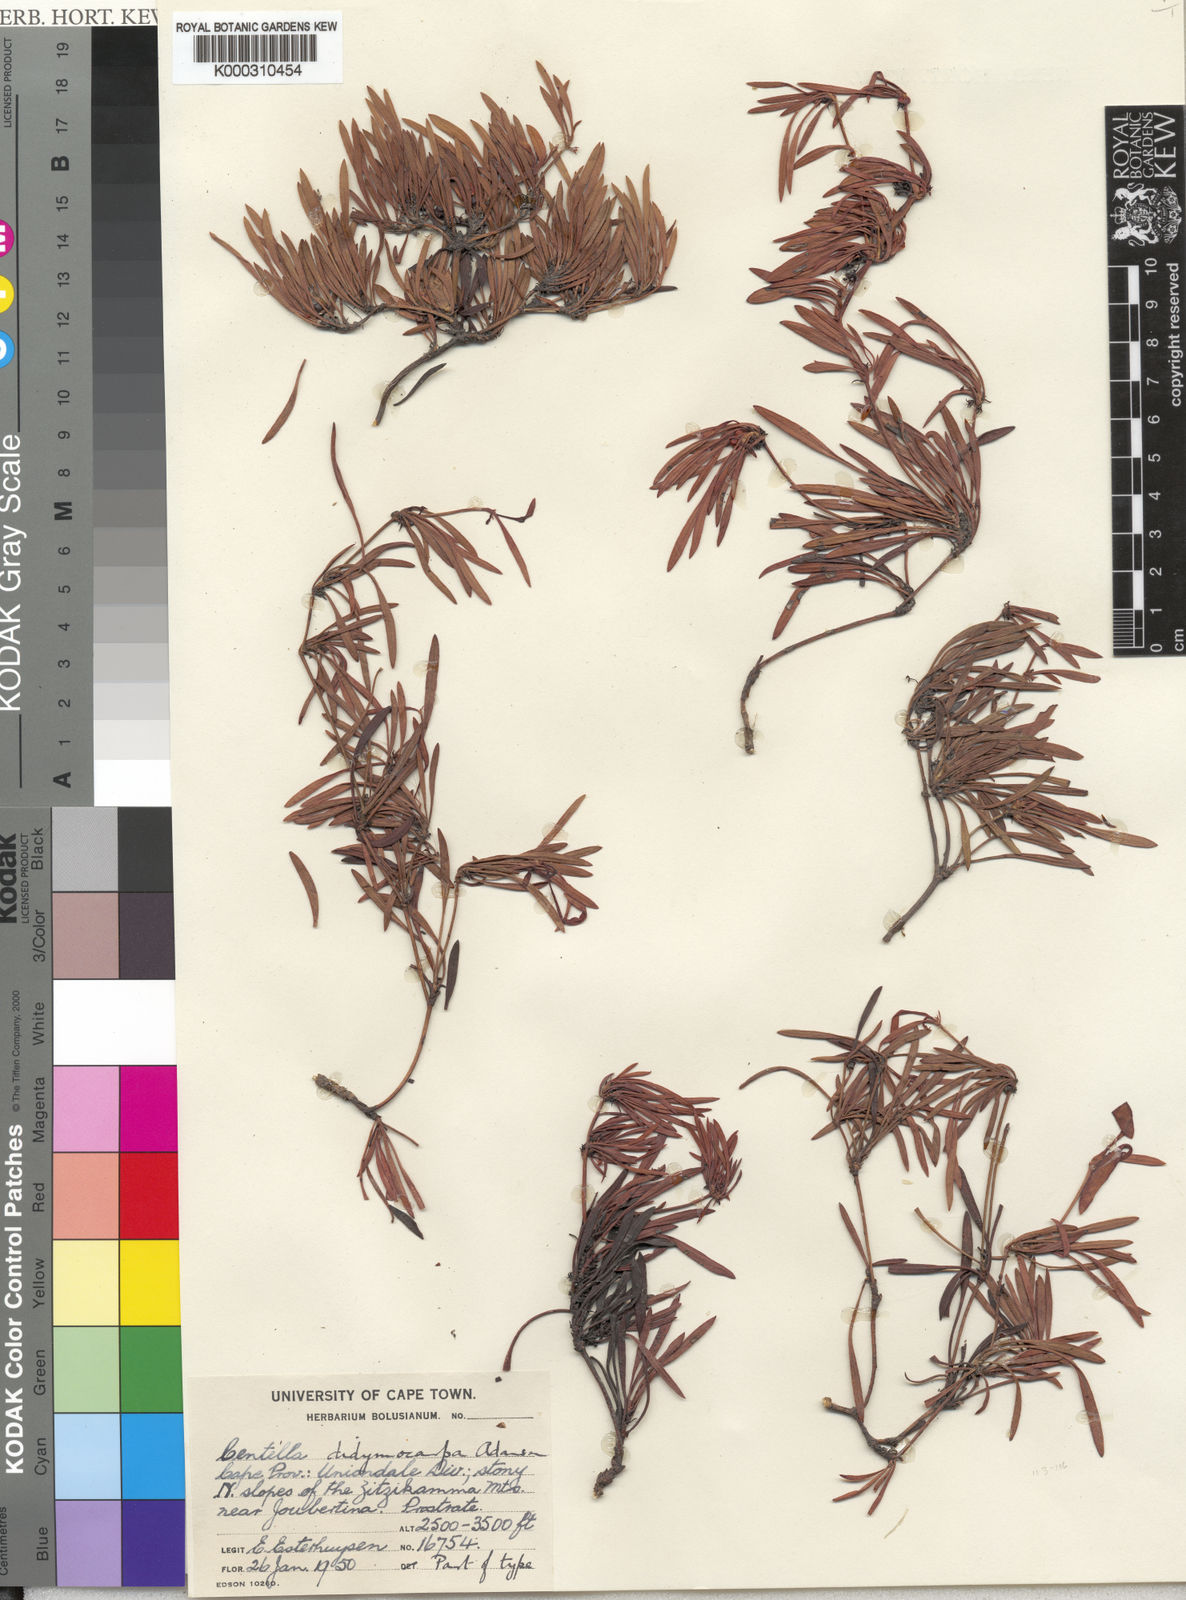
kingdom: Plantae
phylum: Tracheophyta
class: Magnoliopsida
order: Apiales
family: Apiaceae
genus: Centella
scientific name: Centella didymocarpa
